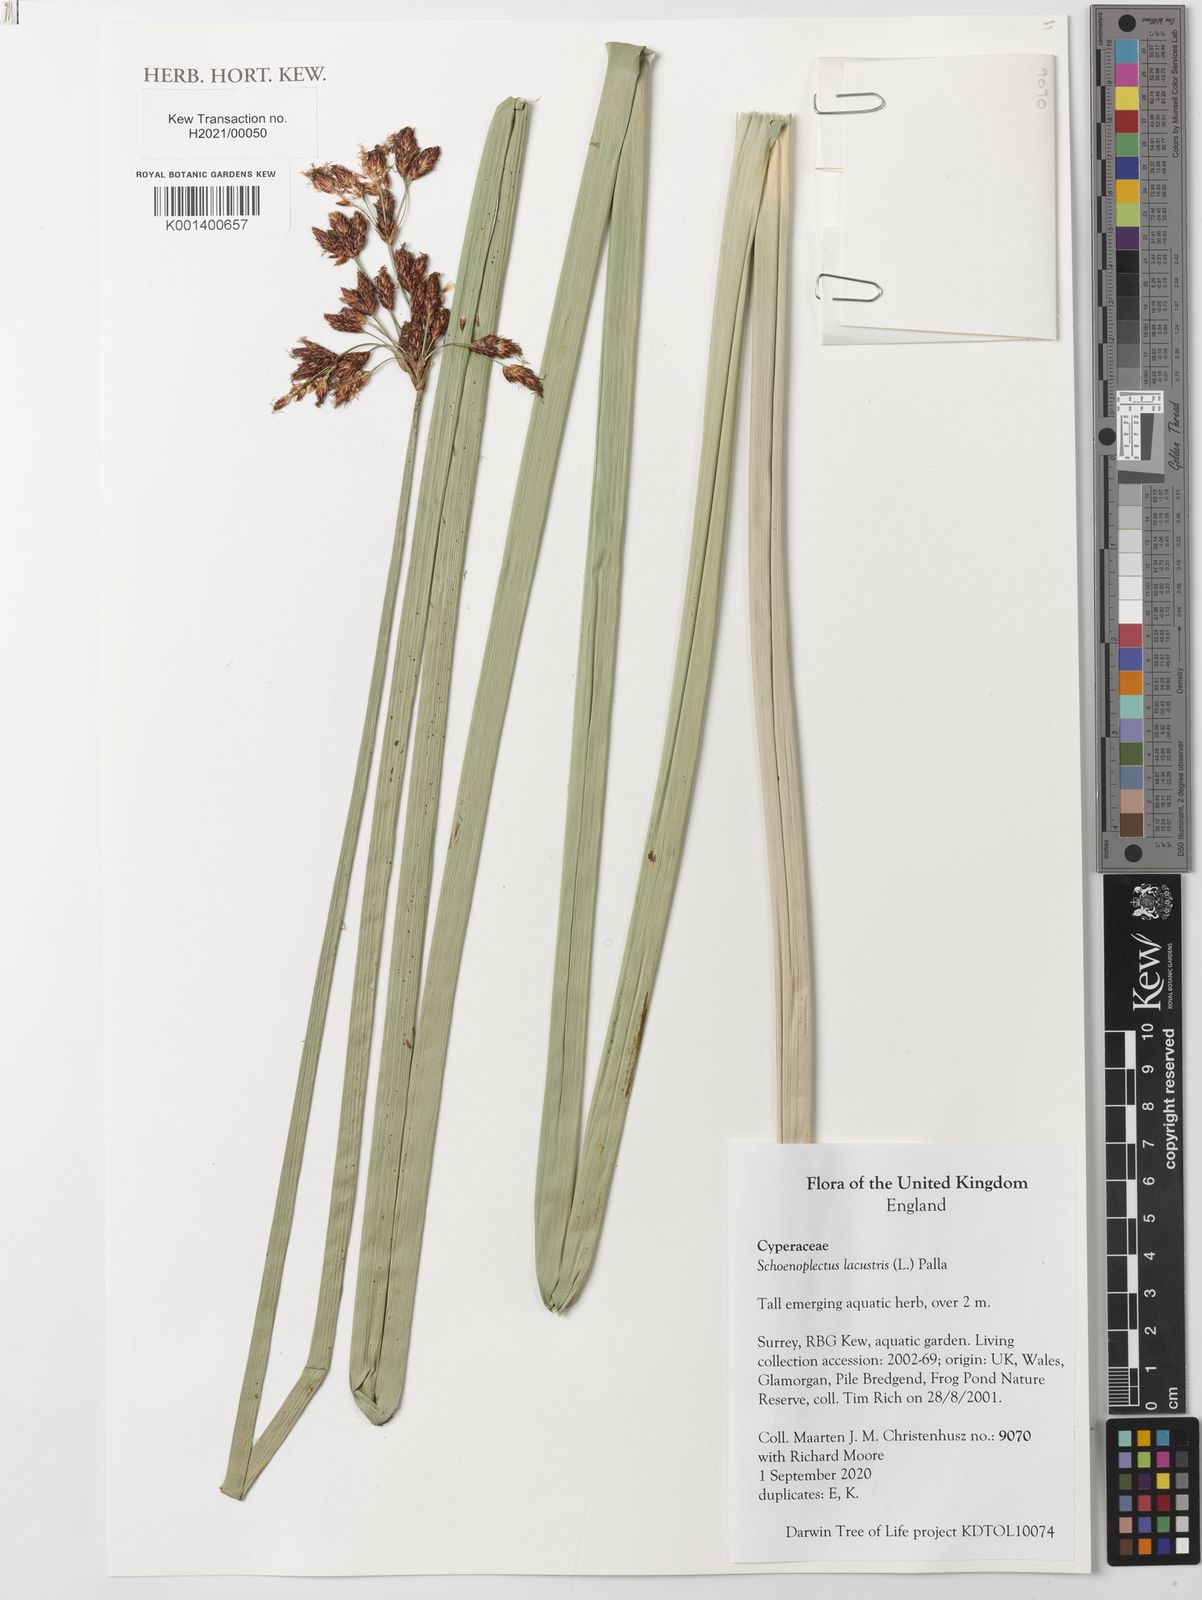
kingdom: Plantae
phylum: Tracheophyta
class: Liliopsida
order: Poales
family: Cyperaceae
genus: Schoenoplectus
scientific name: Schoenoplectus lacustris
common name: Common club-rush
